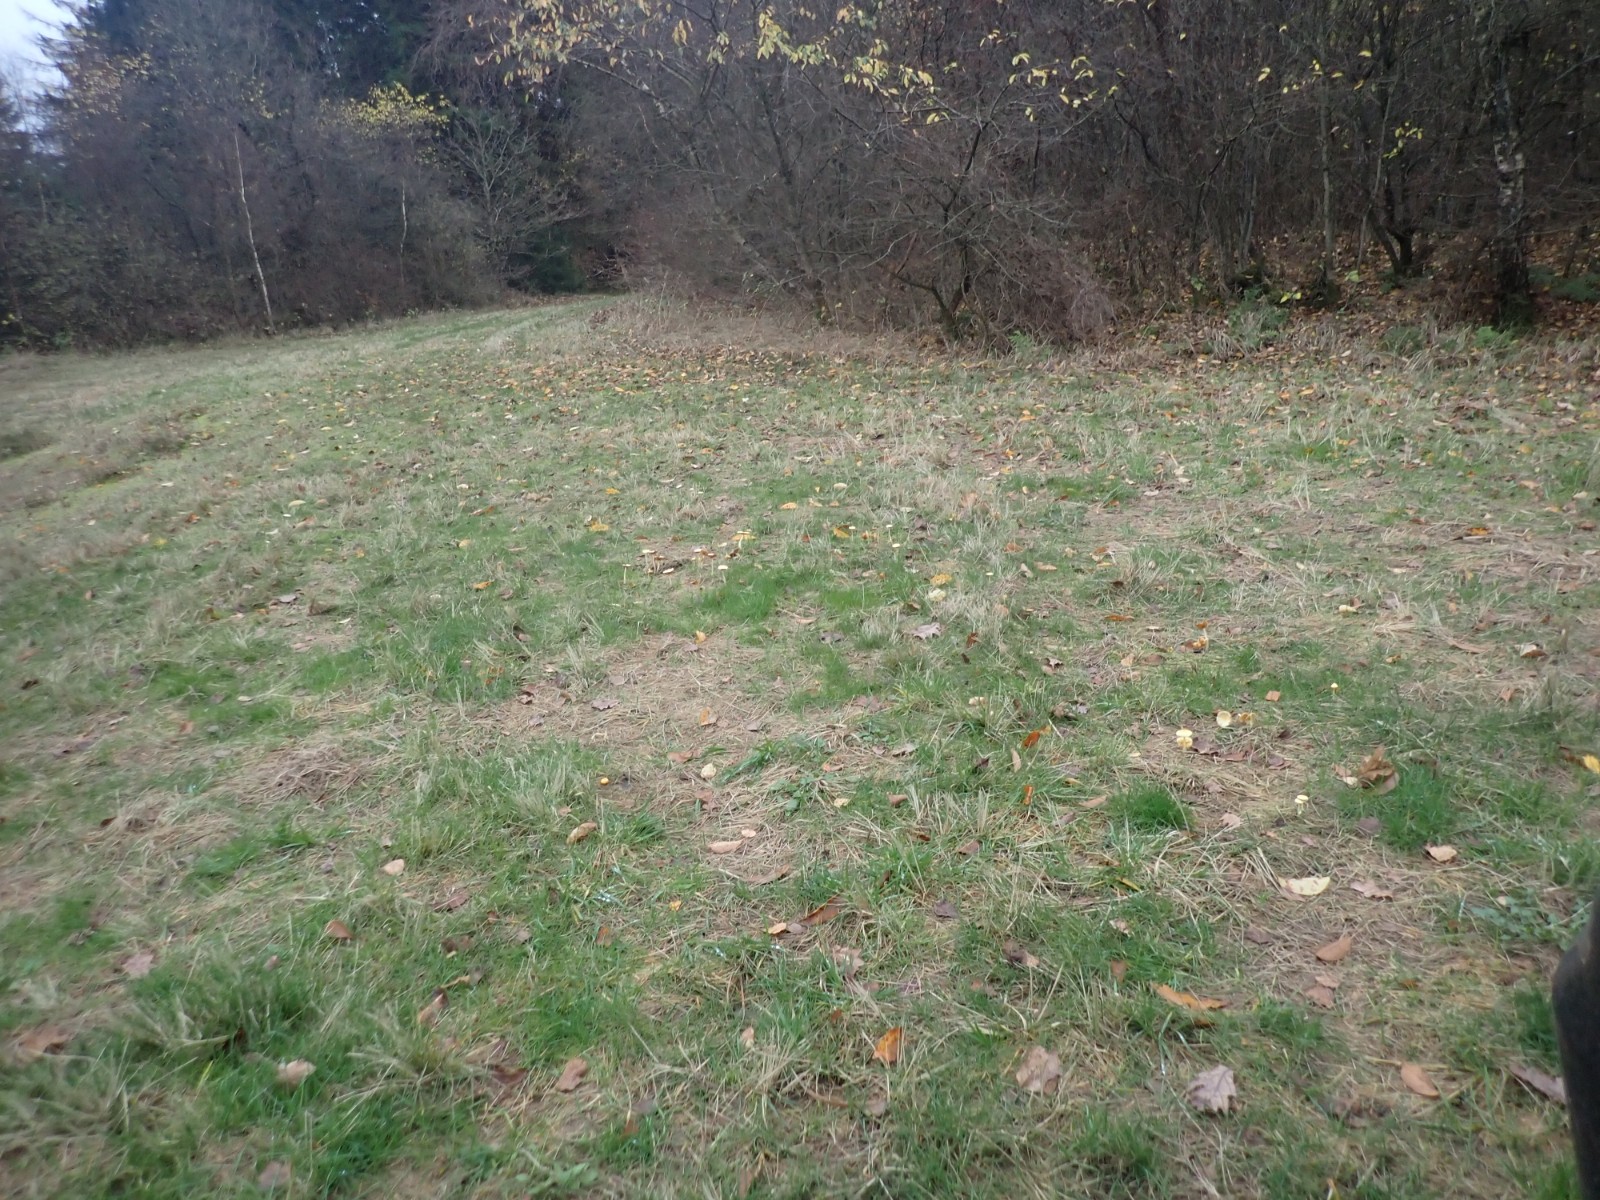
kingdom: Fungi
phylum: Basidiomycota
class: Agaricomycetes
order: Agaricales
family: Bolbitiaceae
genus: Bolbitius
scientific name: Bolbitius titubans
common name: almindelig gulhat
